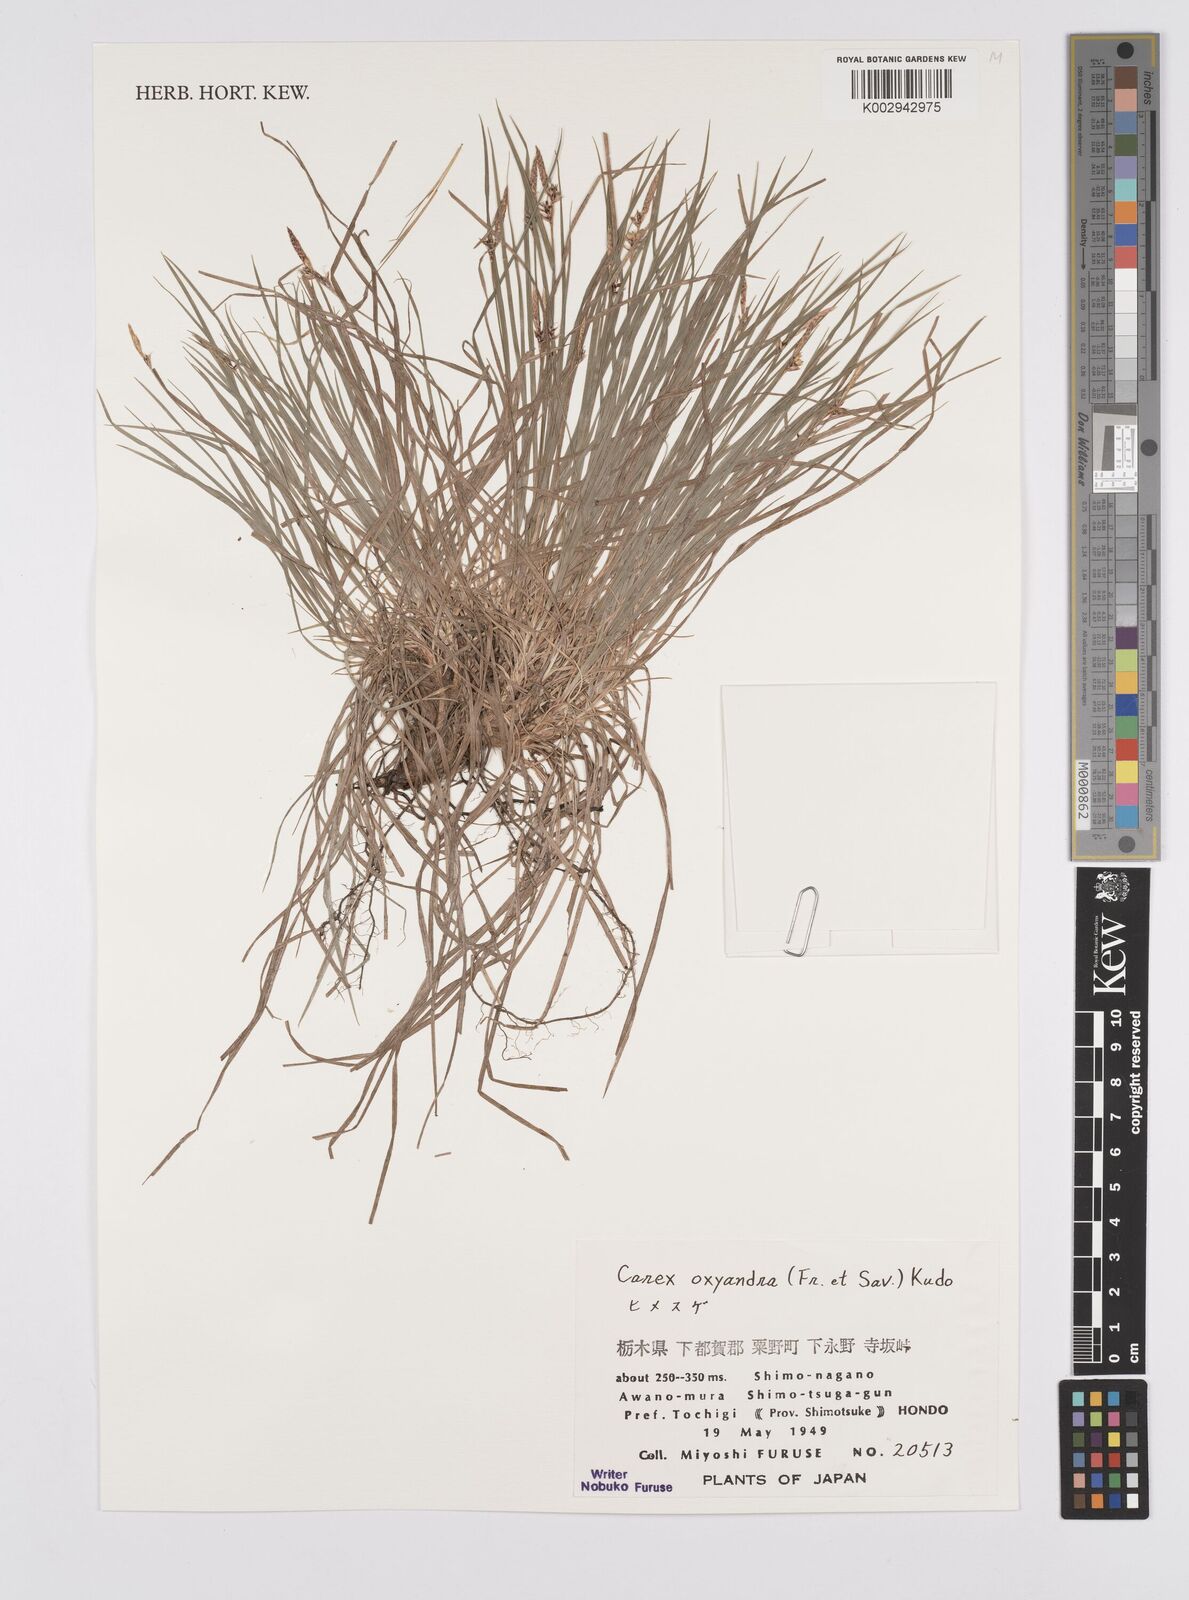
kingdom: Plantae
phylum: Tracheophyta
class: Liliopsida
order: Poales
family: Cyperaceae
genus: Carex
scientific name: Carex oxyandra
